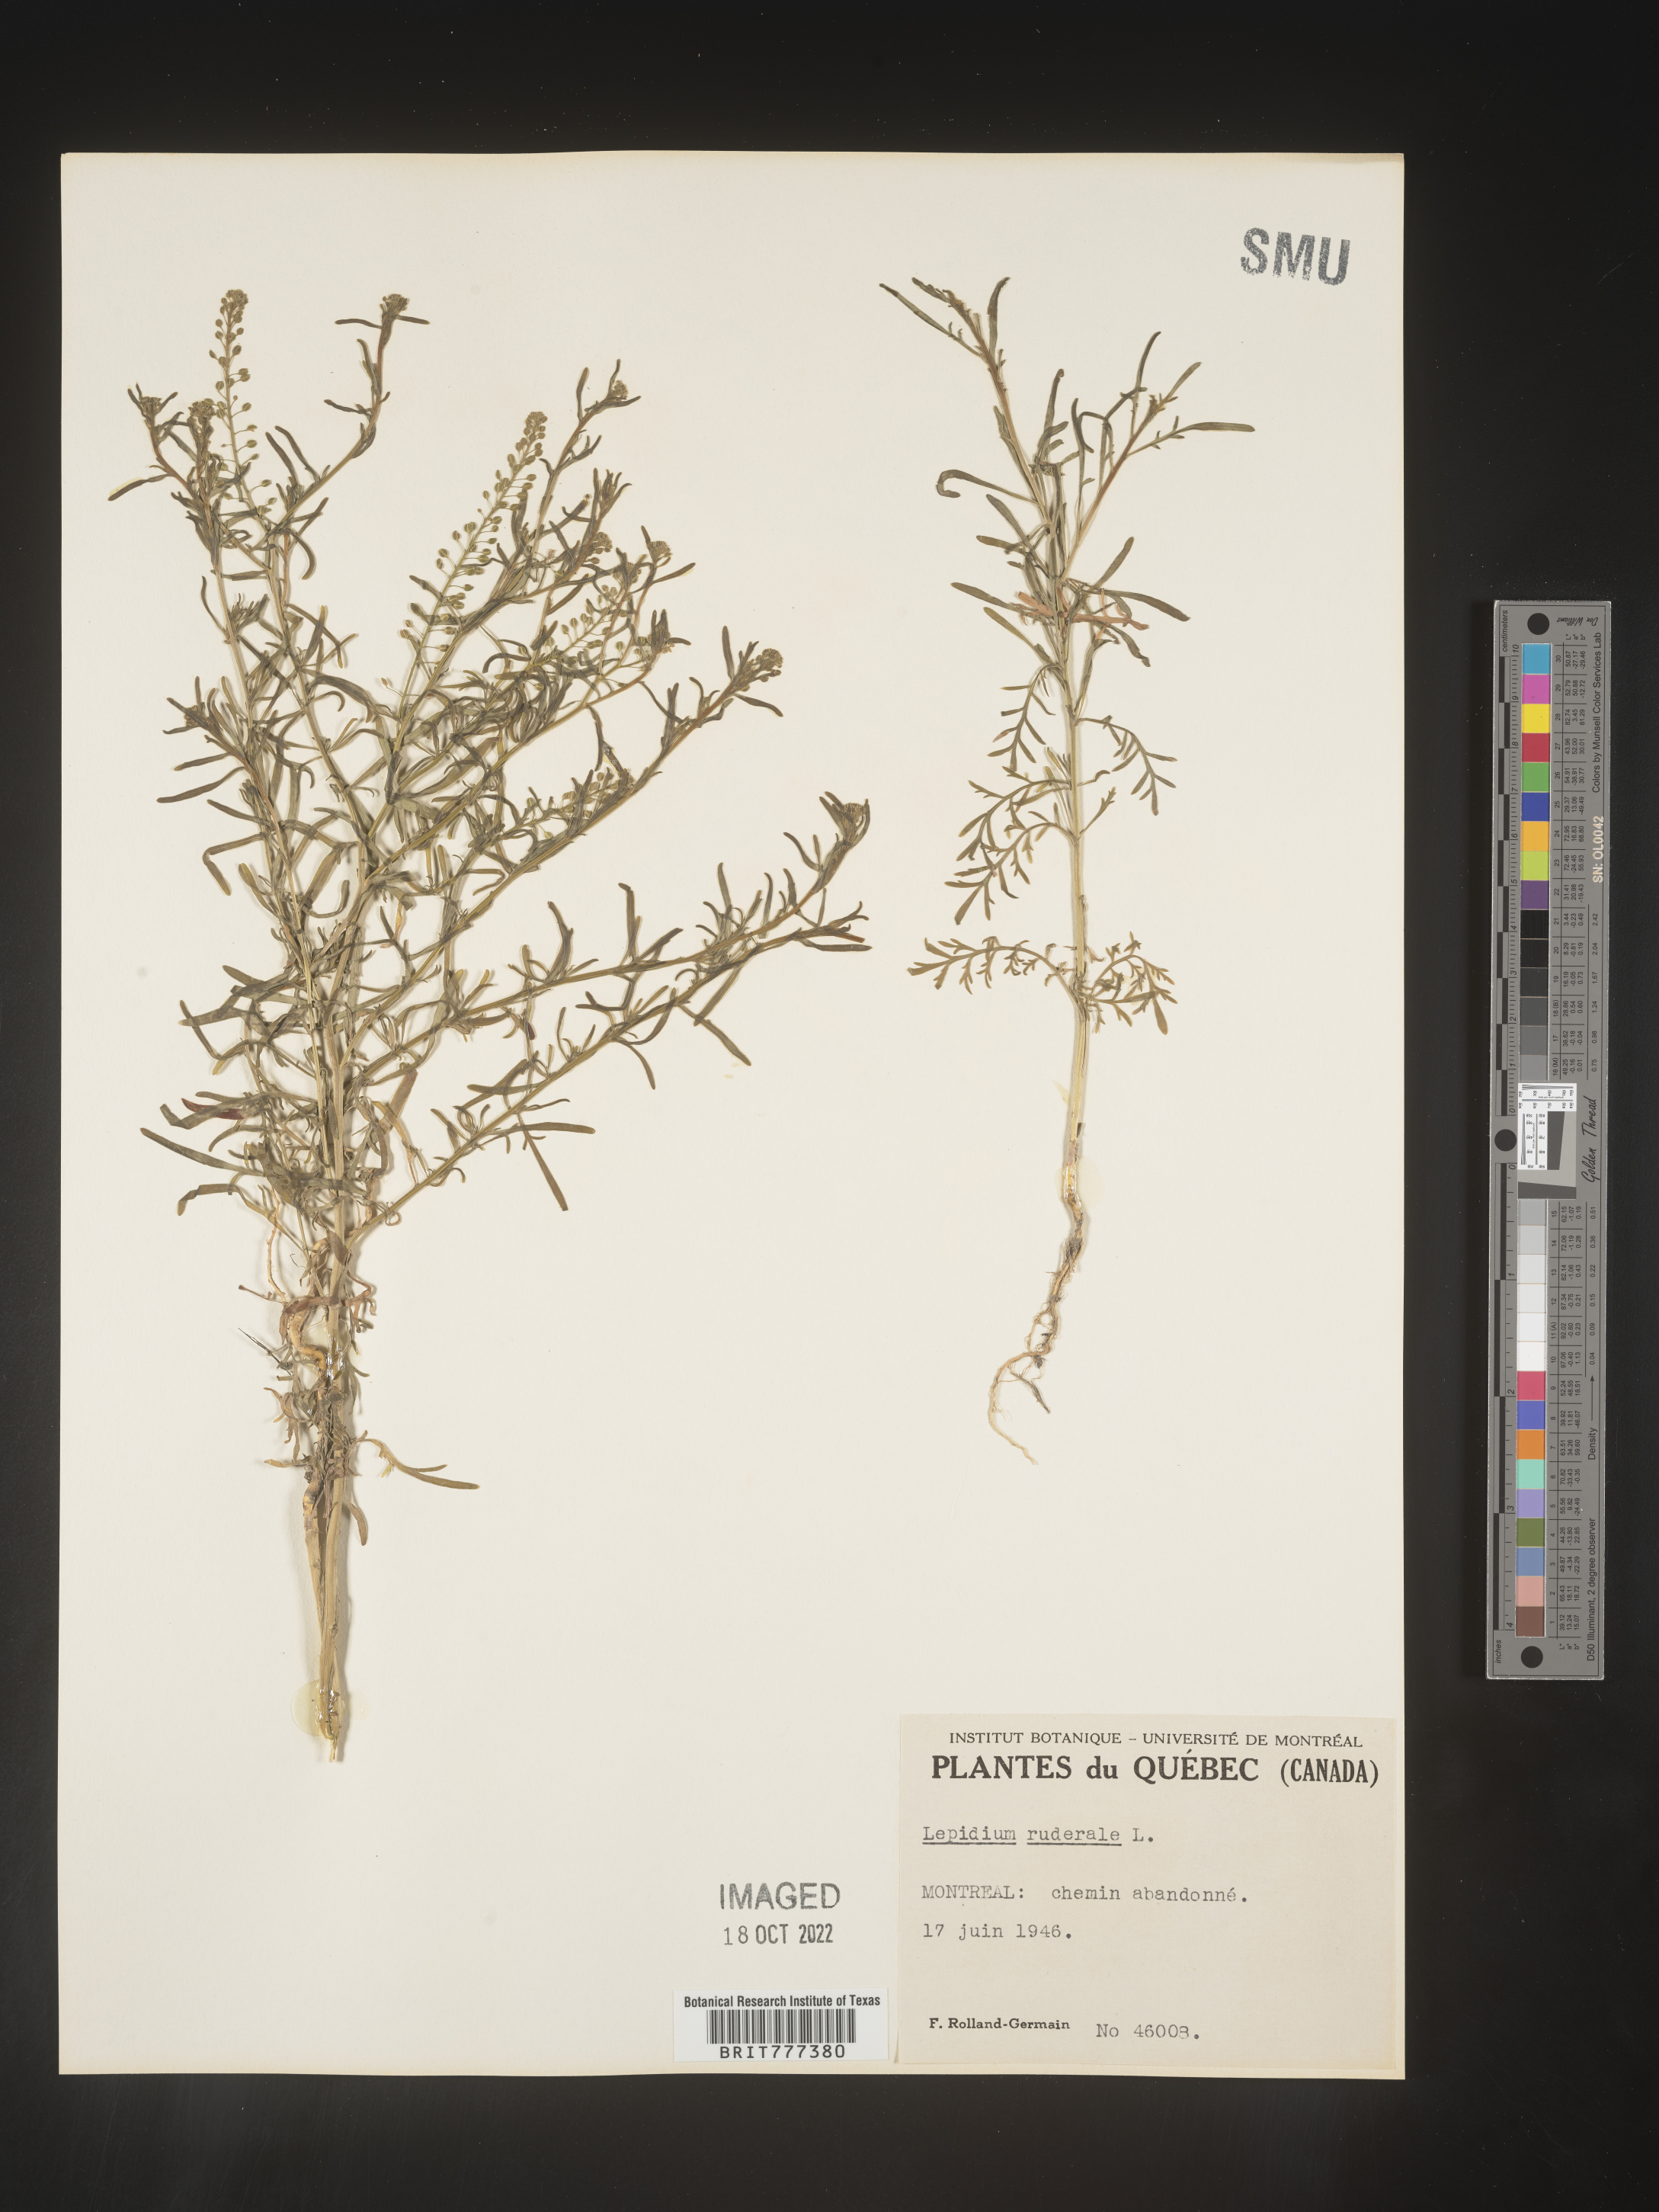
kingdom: Plantae
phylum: Tracheophyta
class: Magnoliopsida
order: Brassicales
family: Brassicaceae
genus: Lepidium
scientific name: Lepidium
